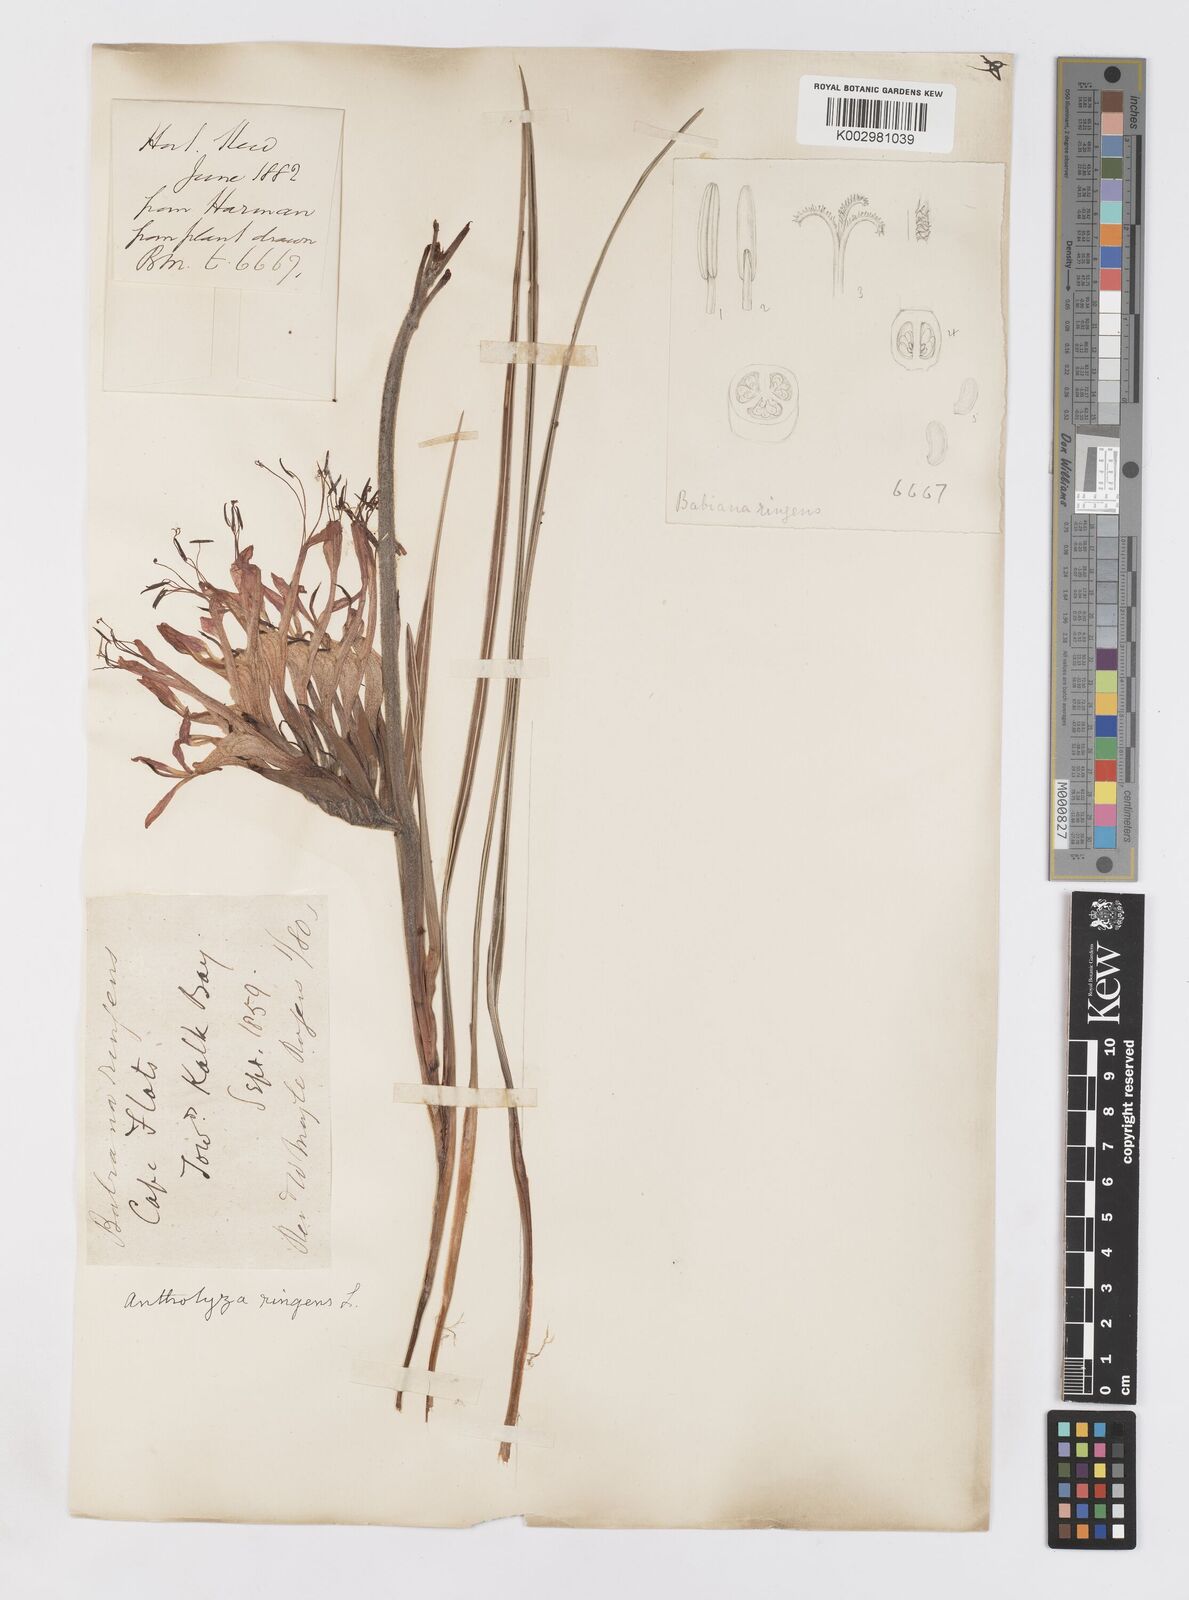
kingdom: Plantae
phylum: Tracheophyta
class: Liliopsida
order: Asparagales
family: Iridaceae
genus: Babiana
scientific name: Babiana ringens
